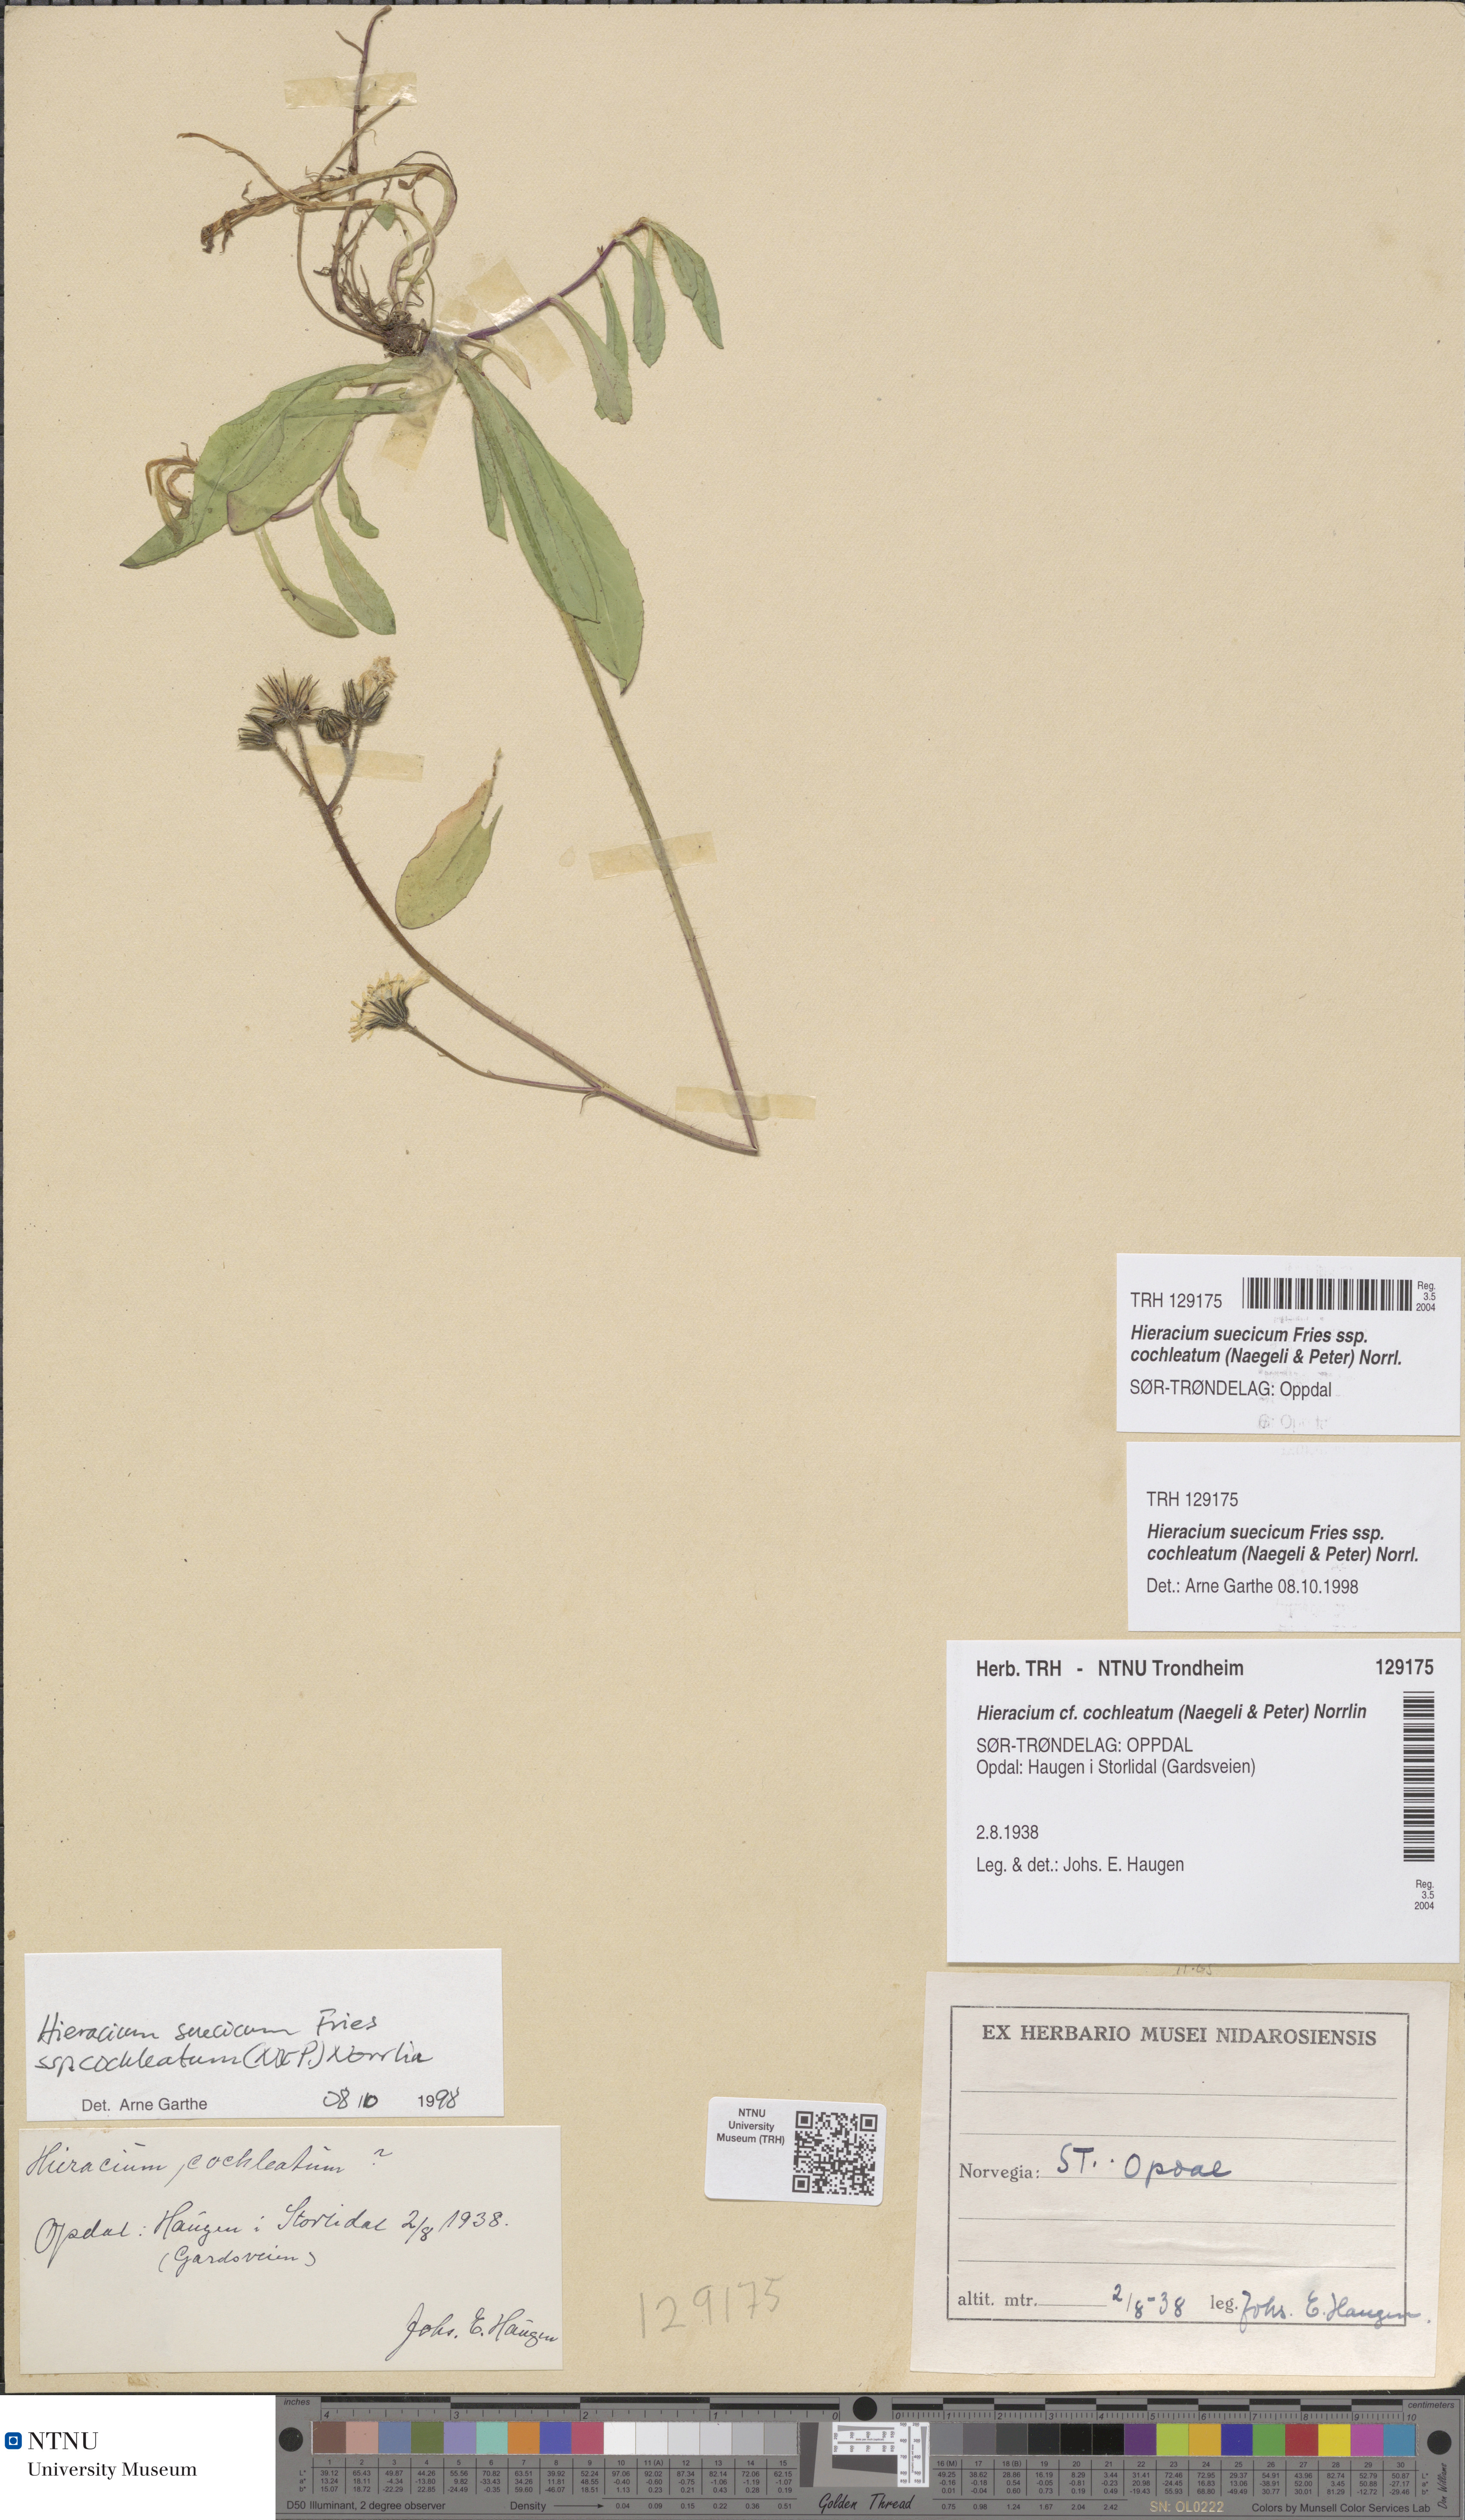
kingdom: Plantae
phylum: Tracheophyta
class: Magnoliopsida
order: Asterales
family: Asteraceae
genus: Pilosella
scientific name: Pilosella dubia
